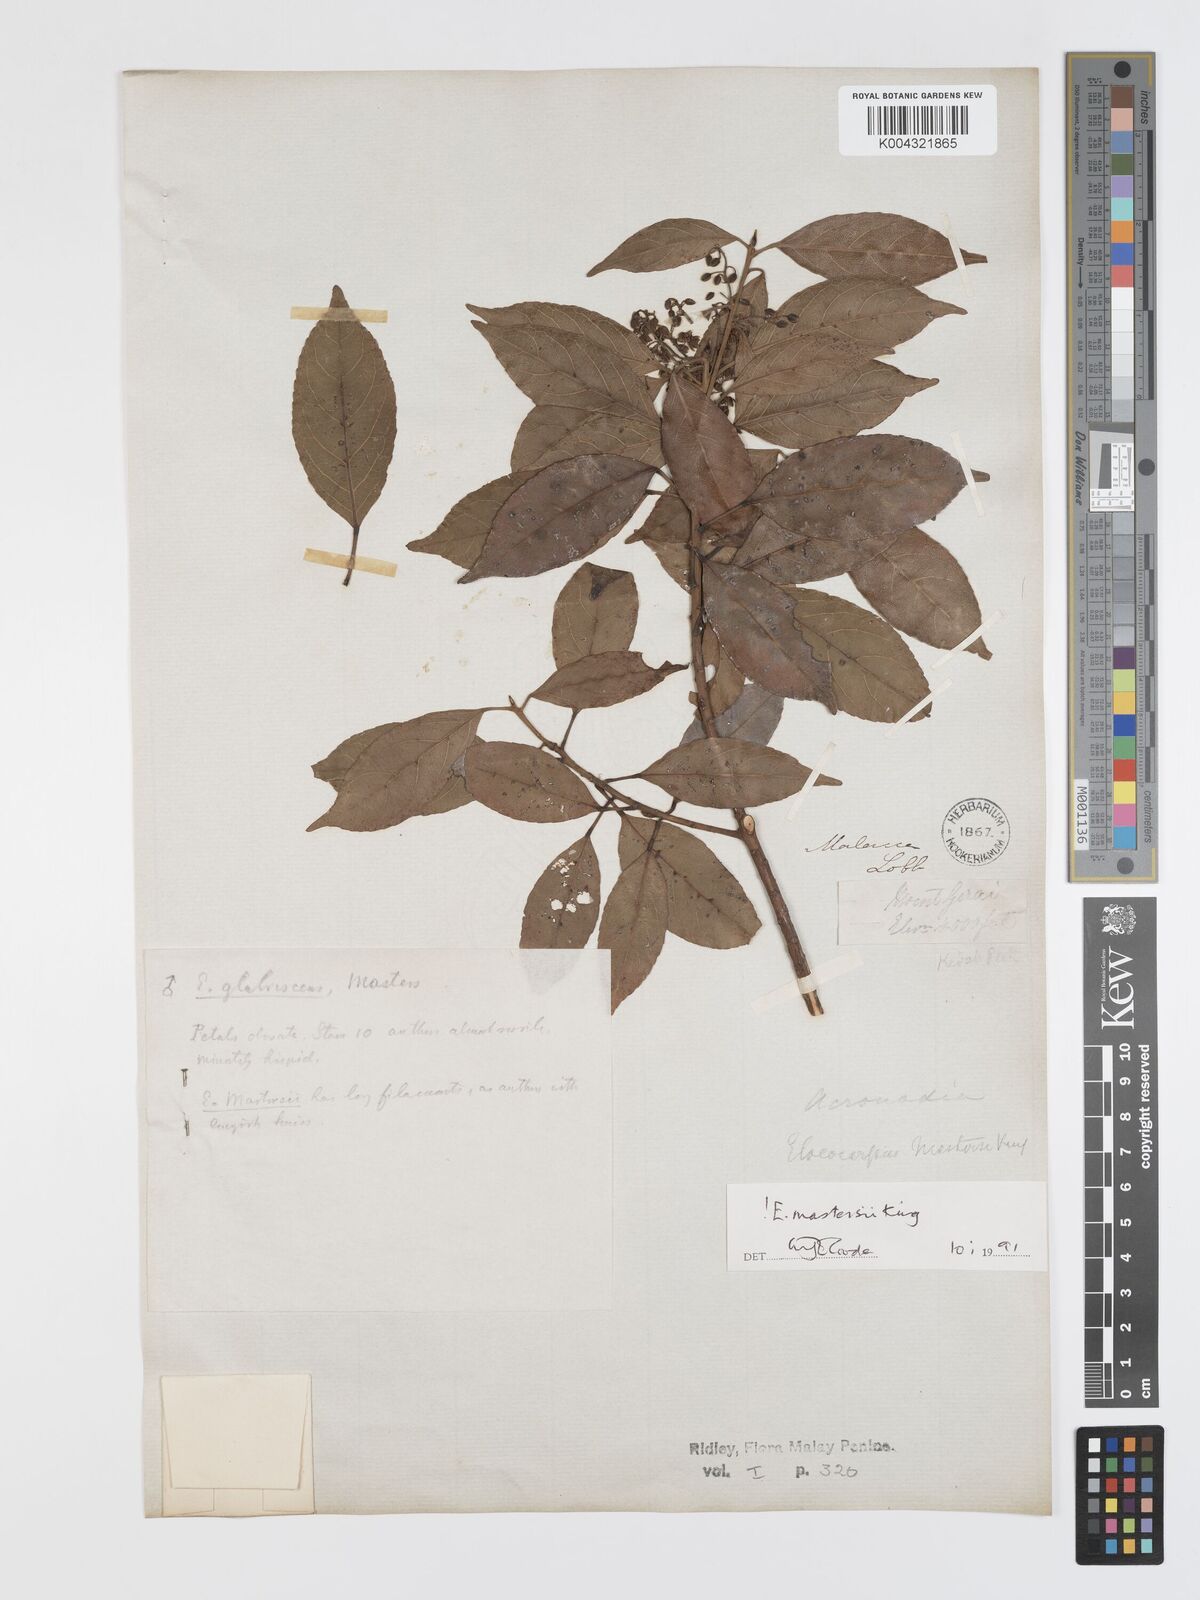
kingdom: Plantae
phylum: Tracheophyta
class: Magnoliopsida
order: Oxalidales
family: Elaeocarpaceae
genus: Elaeocarpus
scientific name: Elaeocarpus mastersii
